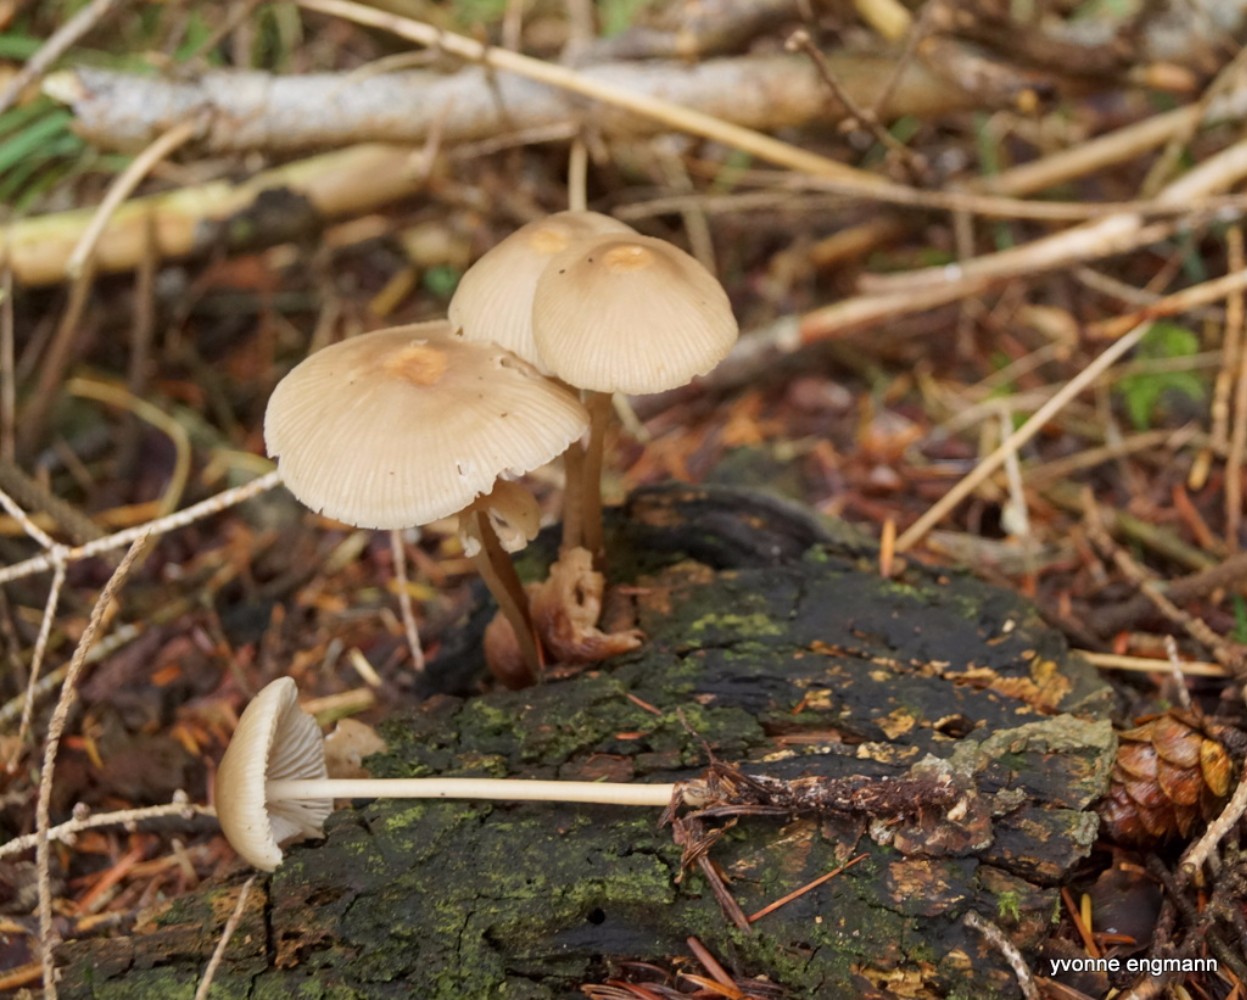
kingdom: Fungi
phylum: Basidiomycota
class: Agaricomycetes
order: Agaricales
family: Mycenaceae
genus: Mycena
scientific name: Mycena galericulata
